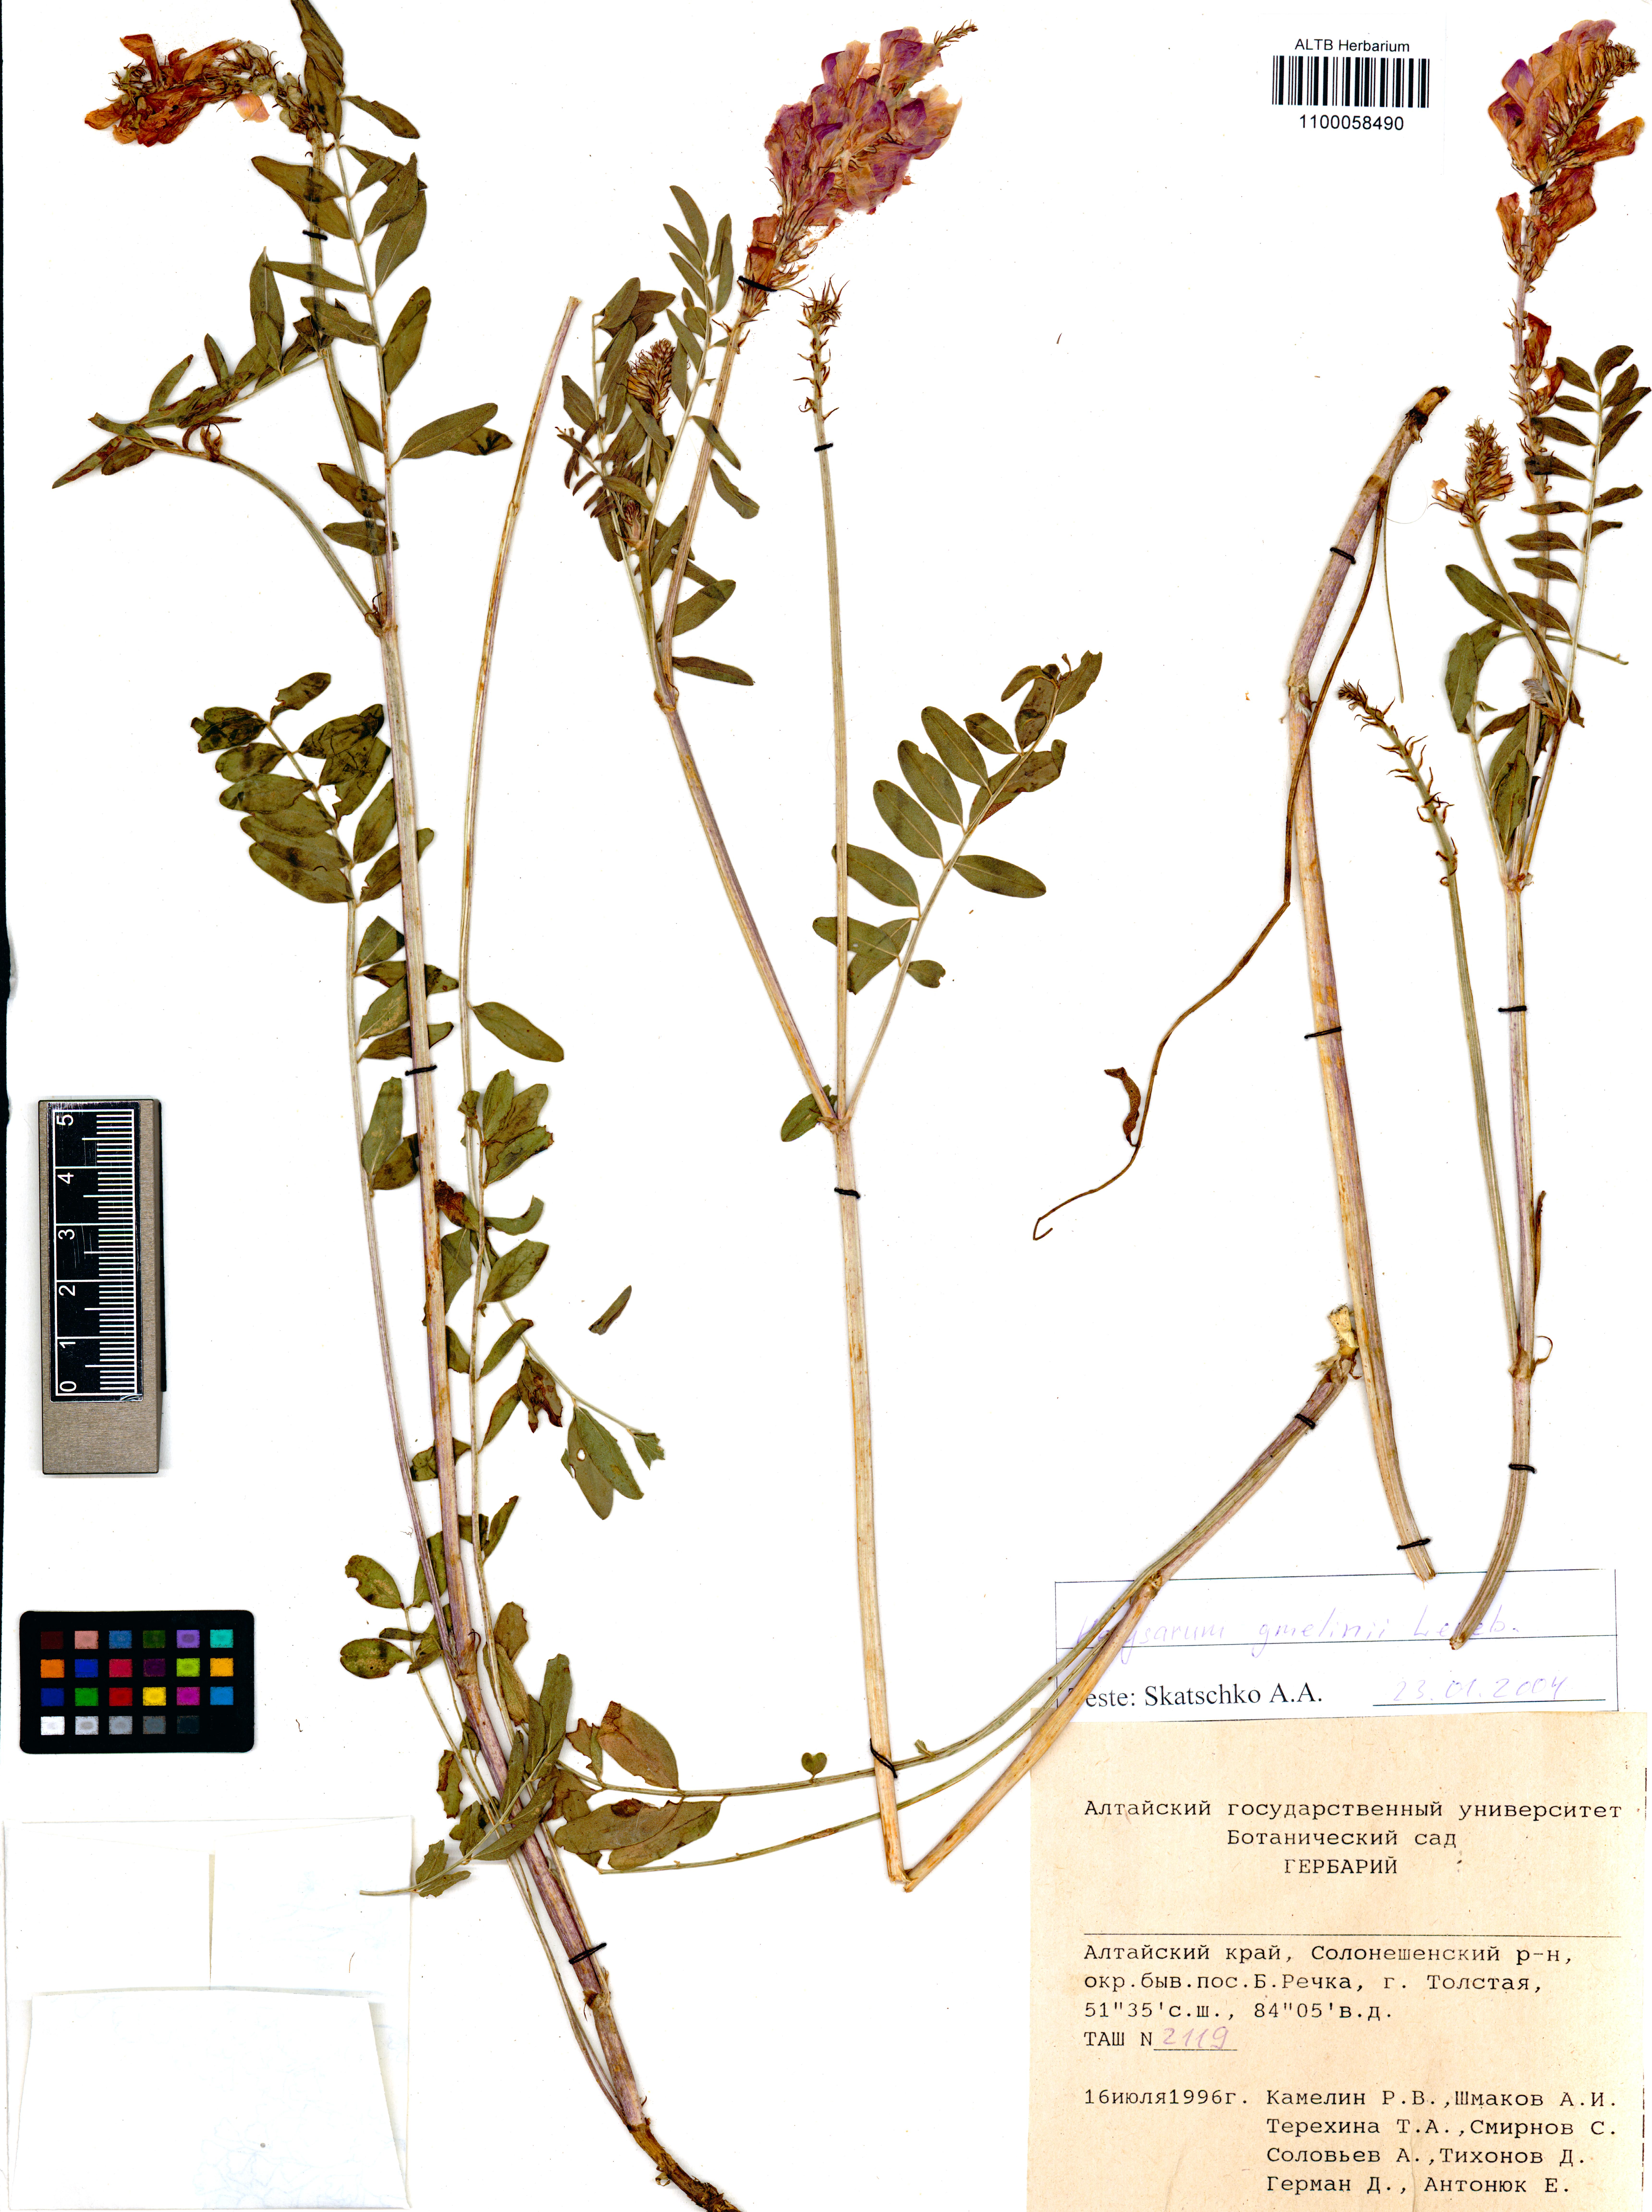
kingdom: Plantae
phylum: Tracheophyta
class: Magnoliopsida
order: Fabales
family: Fabaceae
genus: Hedysarum
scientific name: Hedysarum gmelinii
